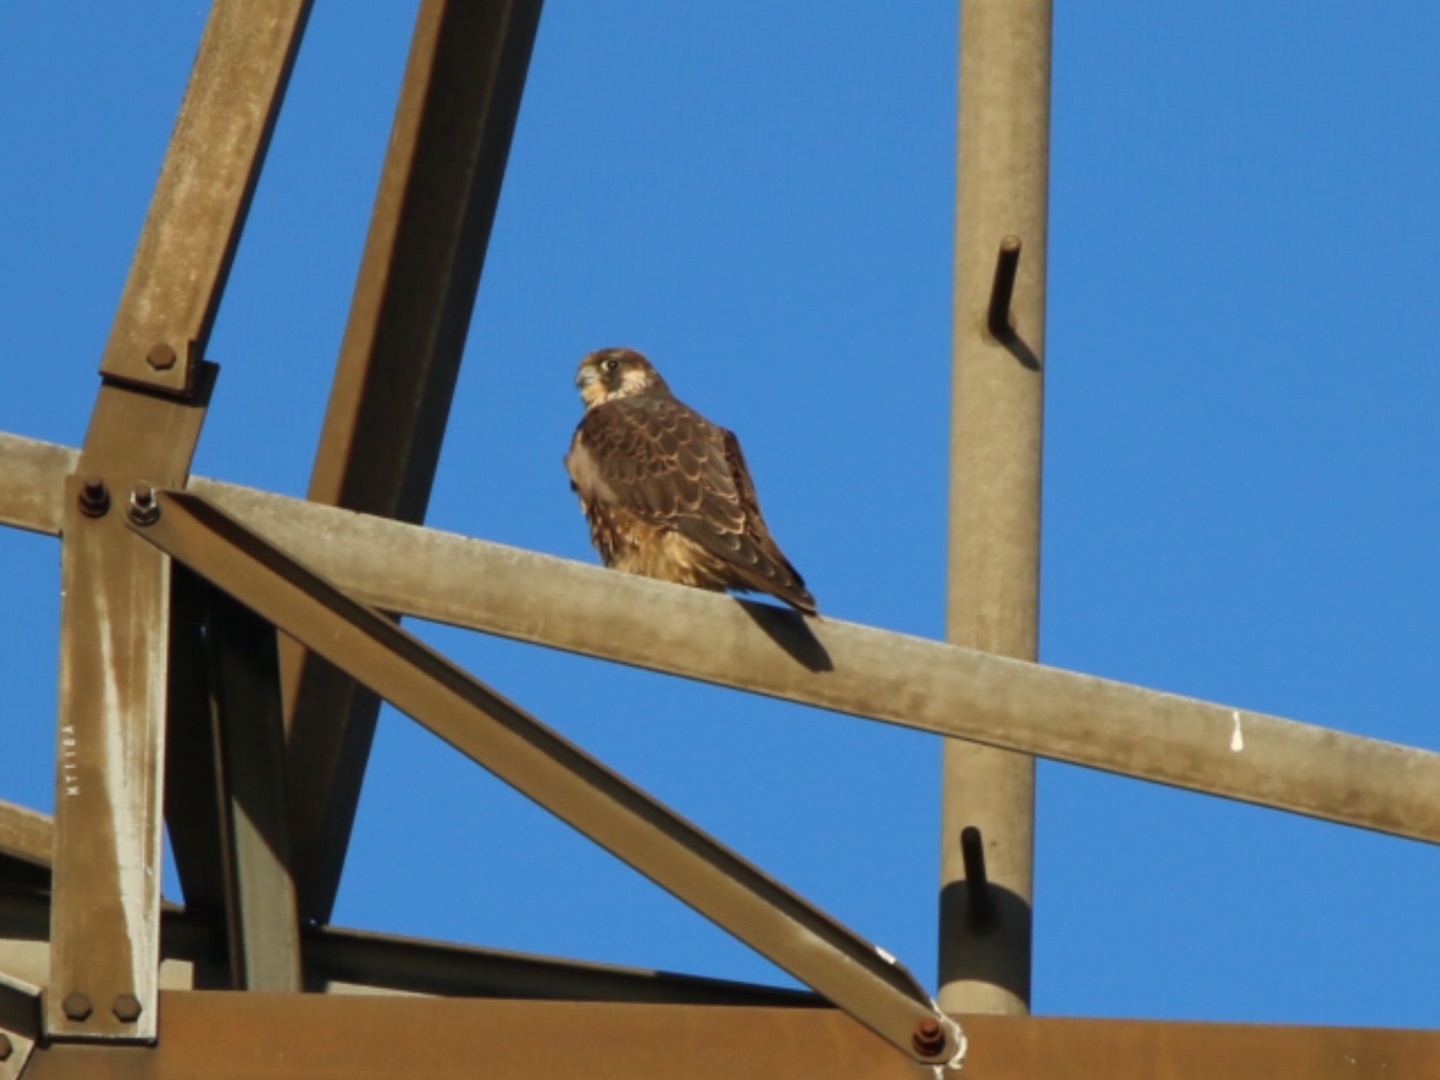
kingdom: Animalia
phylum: Chordata
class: Aves
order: Falconiformes
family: Falconidae
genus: Falco
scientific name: Falco peregrinus
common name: Vandrefalk
